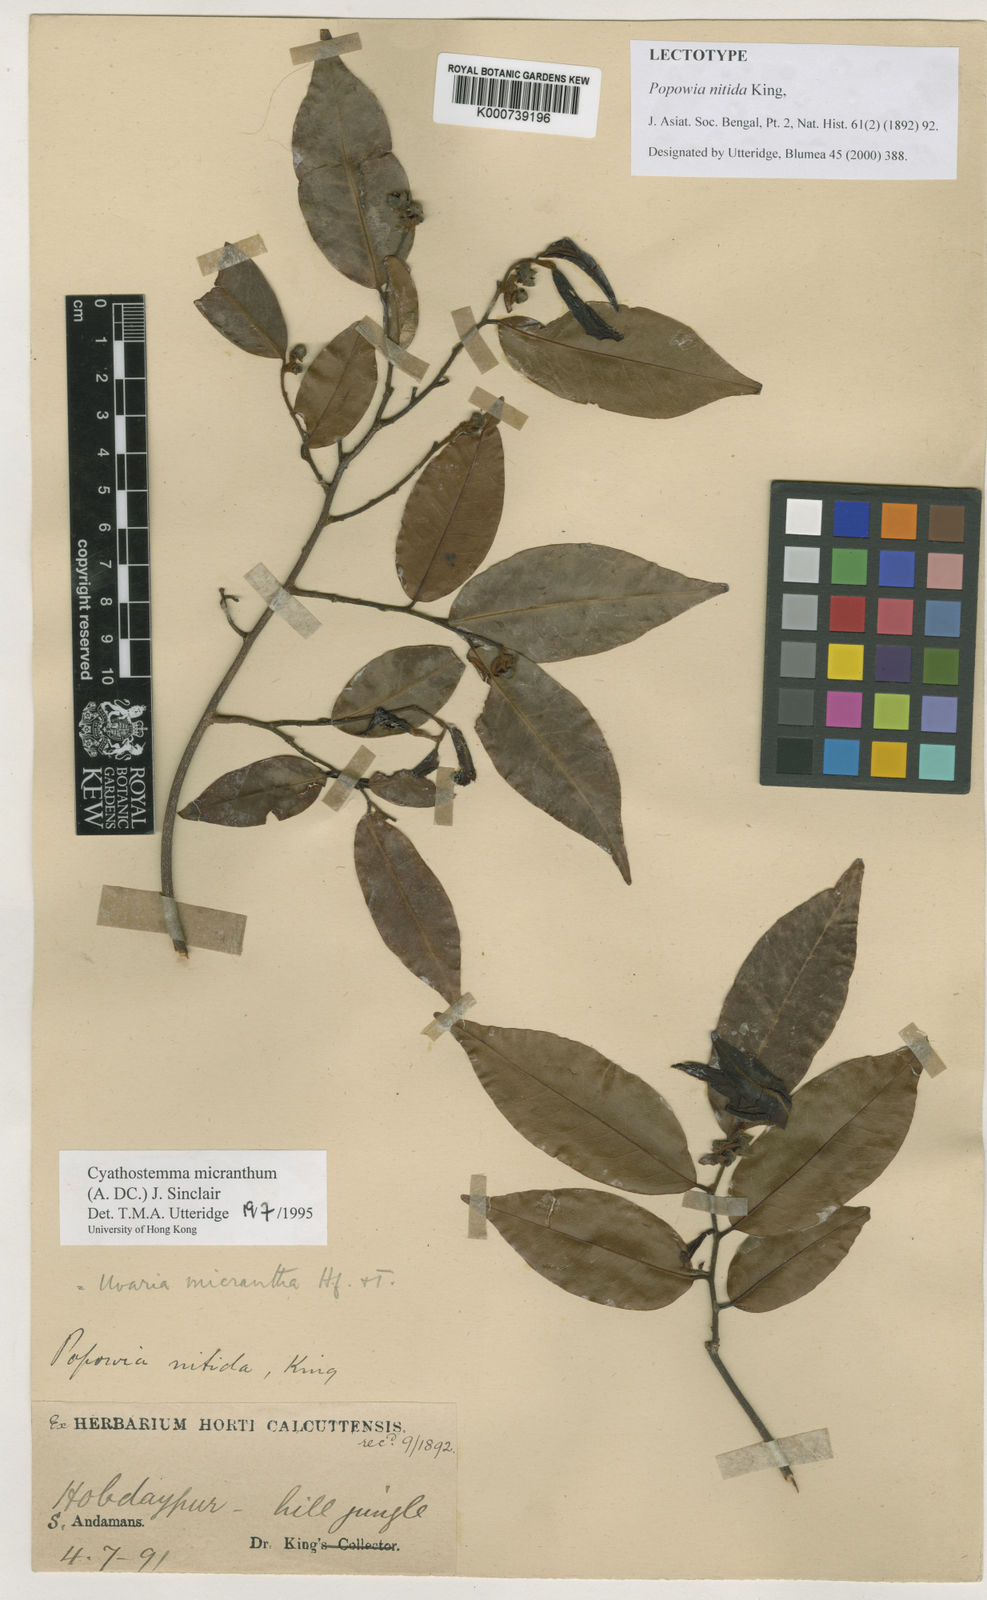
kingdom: Plantae
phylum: Tracheophyta
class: Magnoliopsida
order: Magnoliales
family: Annonaceae
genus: Uvaria
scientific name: Uvaria micrantha
